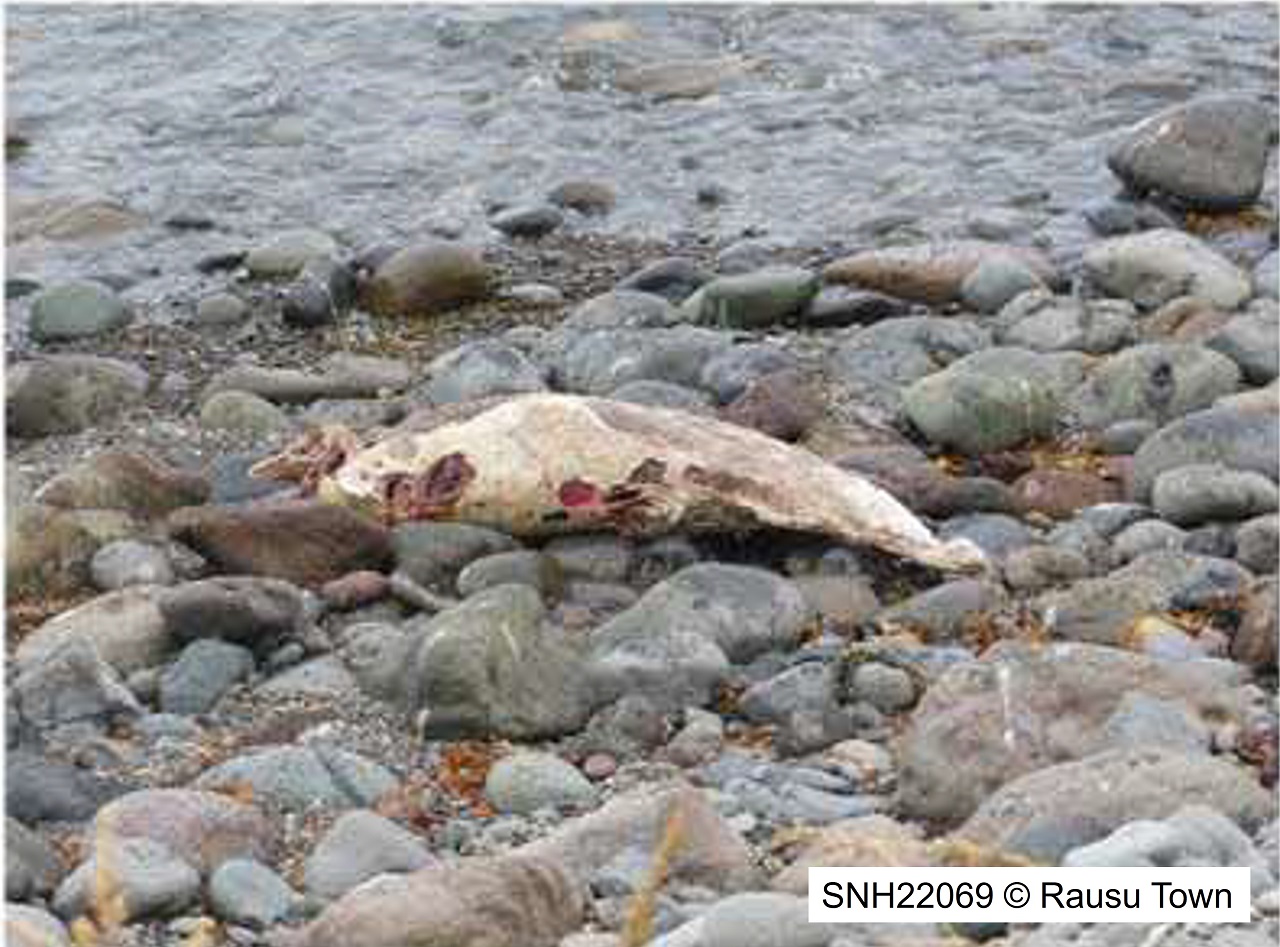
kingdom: Animalia
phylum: Chordata
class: Mammalia
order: Cetacea
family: Phocoenidae
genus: Phocoenoides
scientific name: Phocoenoides dalli
